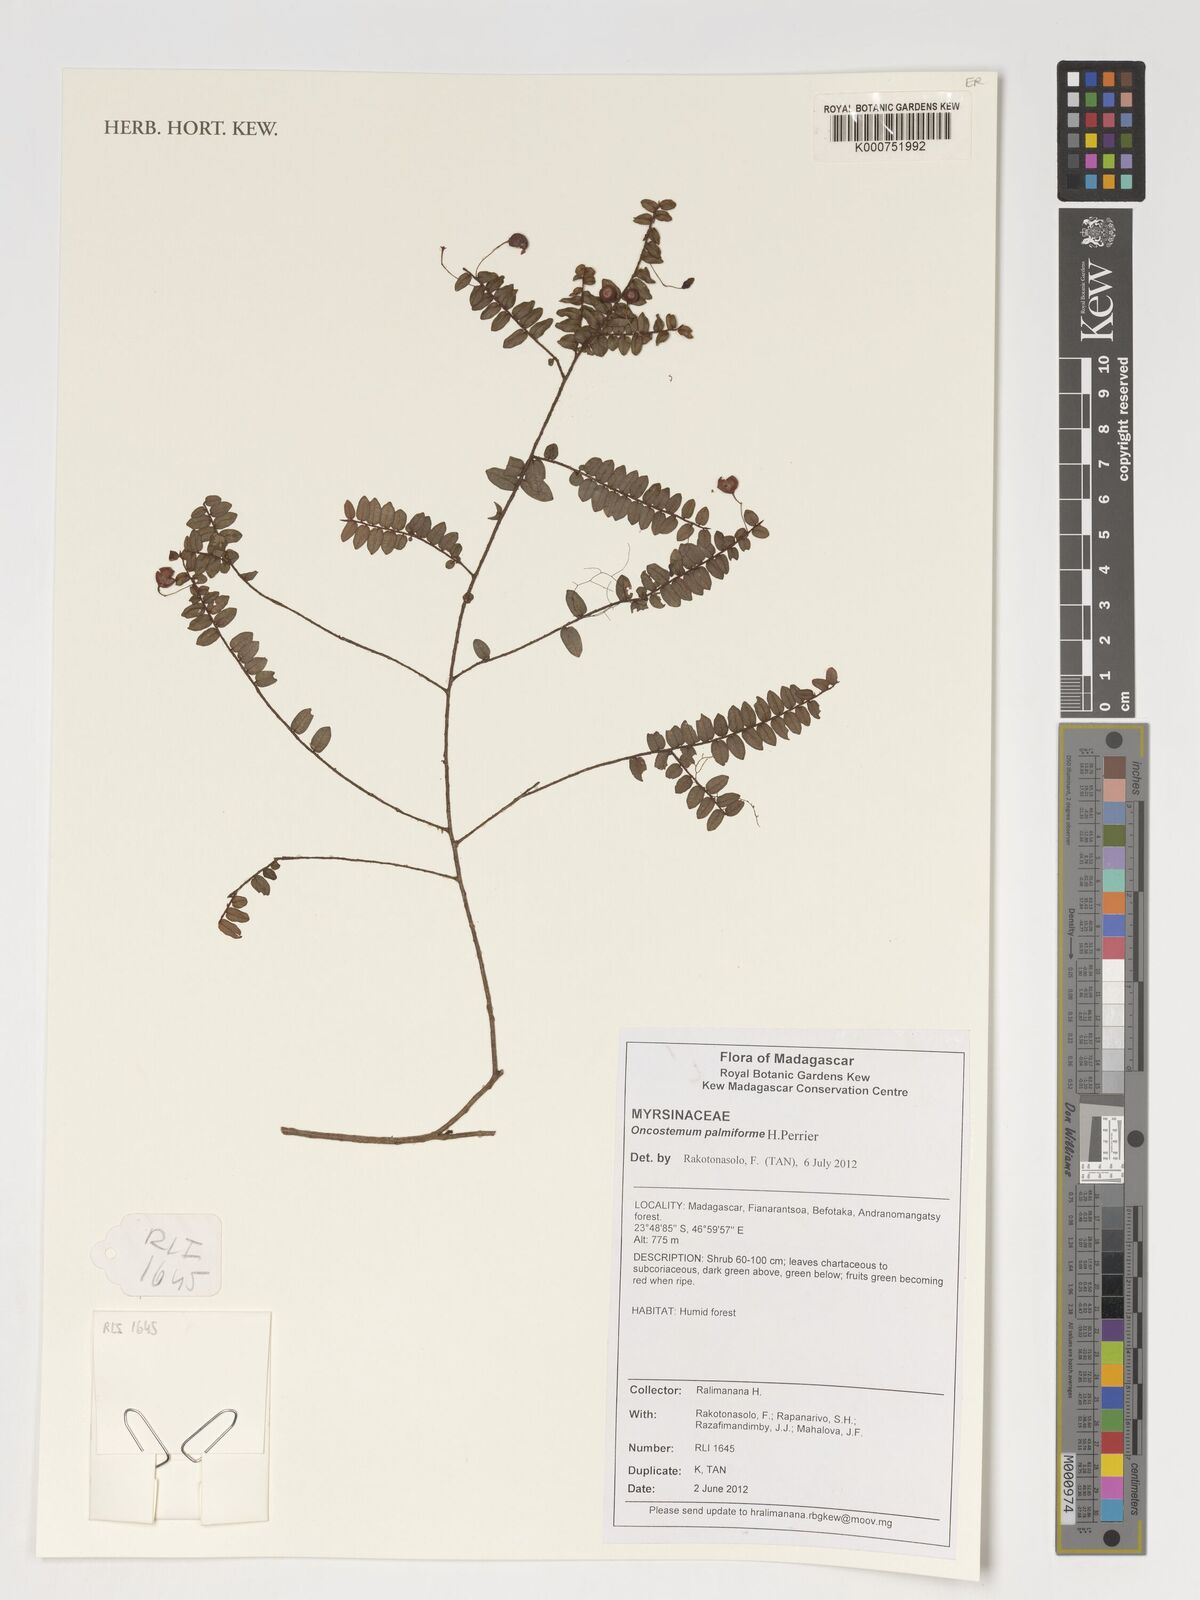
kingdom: Plantae
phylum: Tracheophyta
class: Magnoliopsida
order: Ericales
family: Primulaceae
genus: Oncostemum
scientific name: Oncostemum palmiforme
